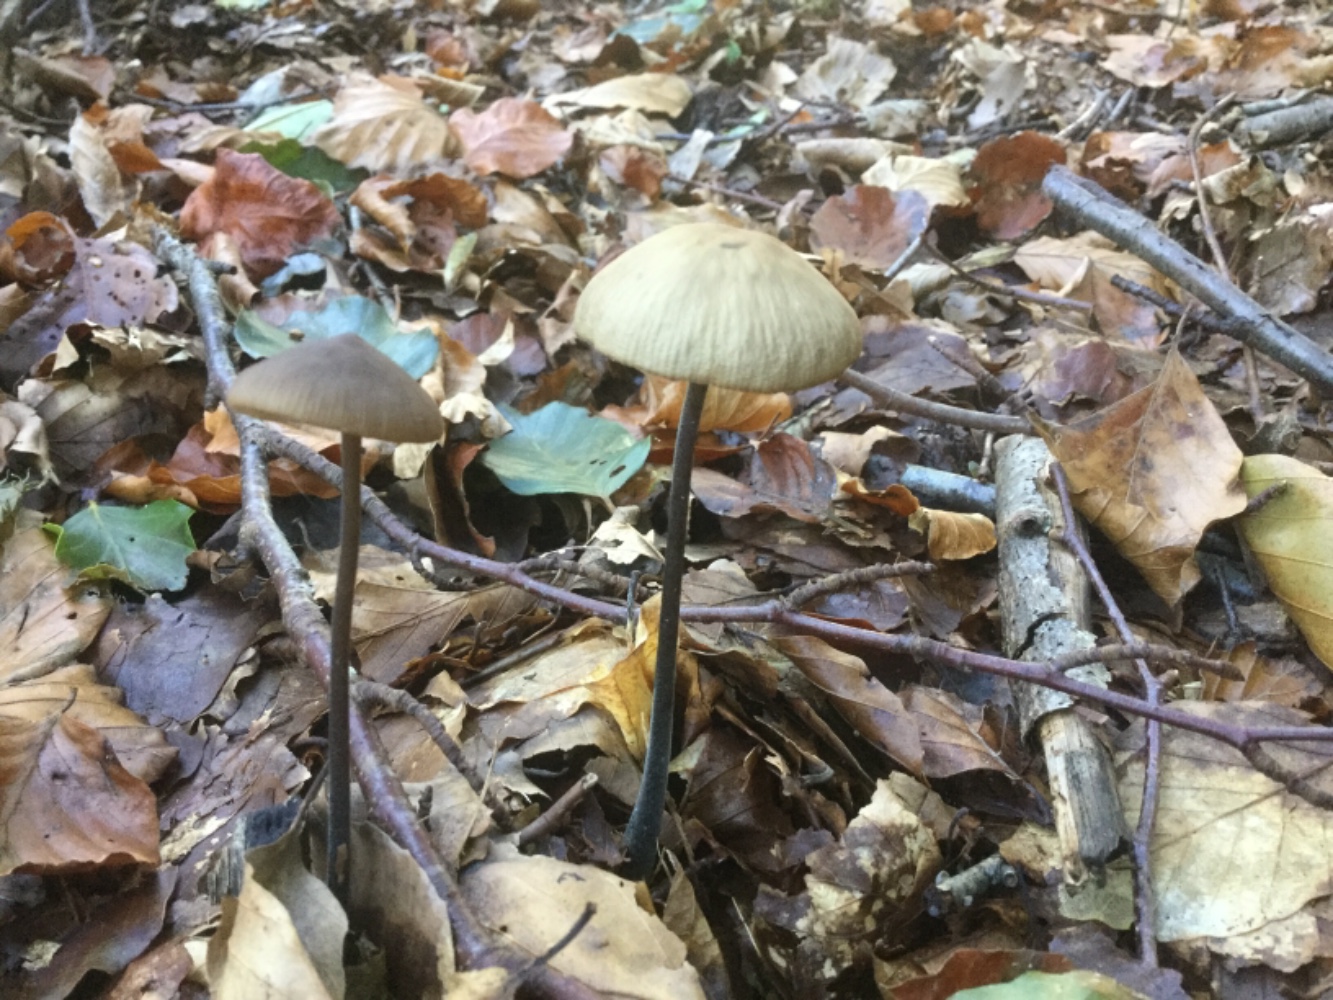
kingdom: Fungi
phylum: Basidiomycota
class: Agaricomycetes
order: Agaricales
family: Omphalotaceae
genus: Mycetinis
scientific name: Mycetinis alliaceus
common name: stor løghat
